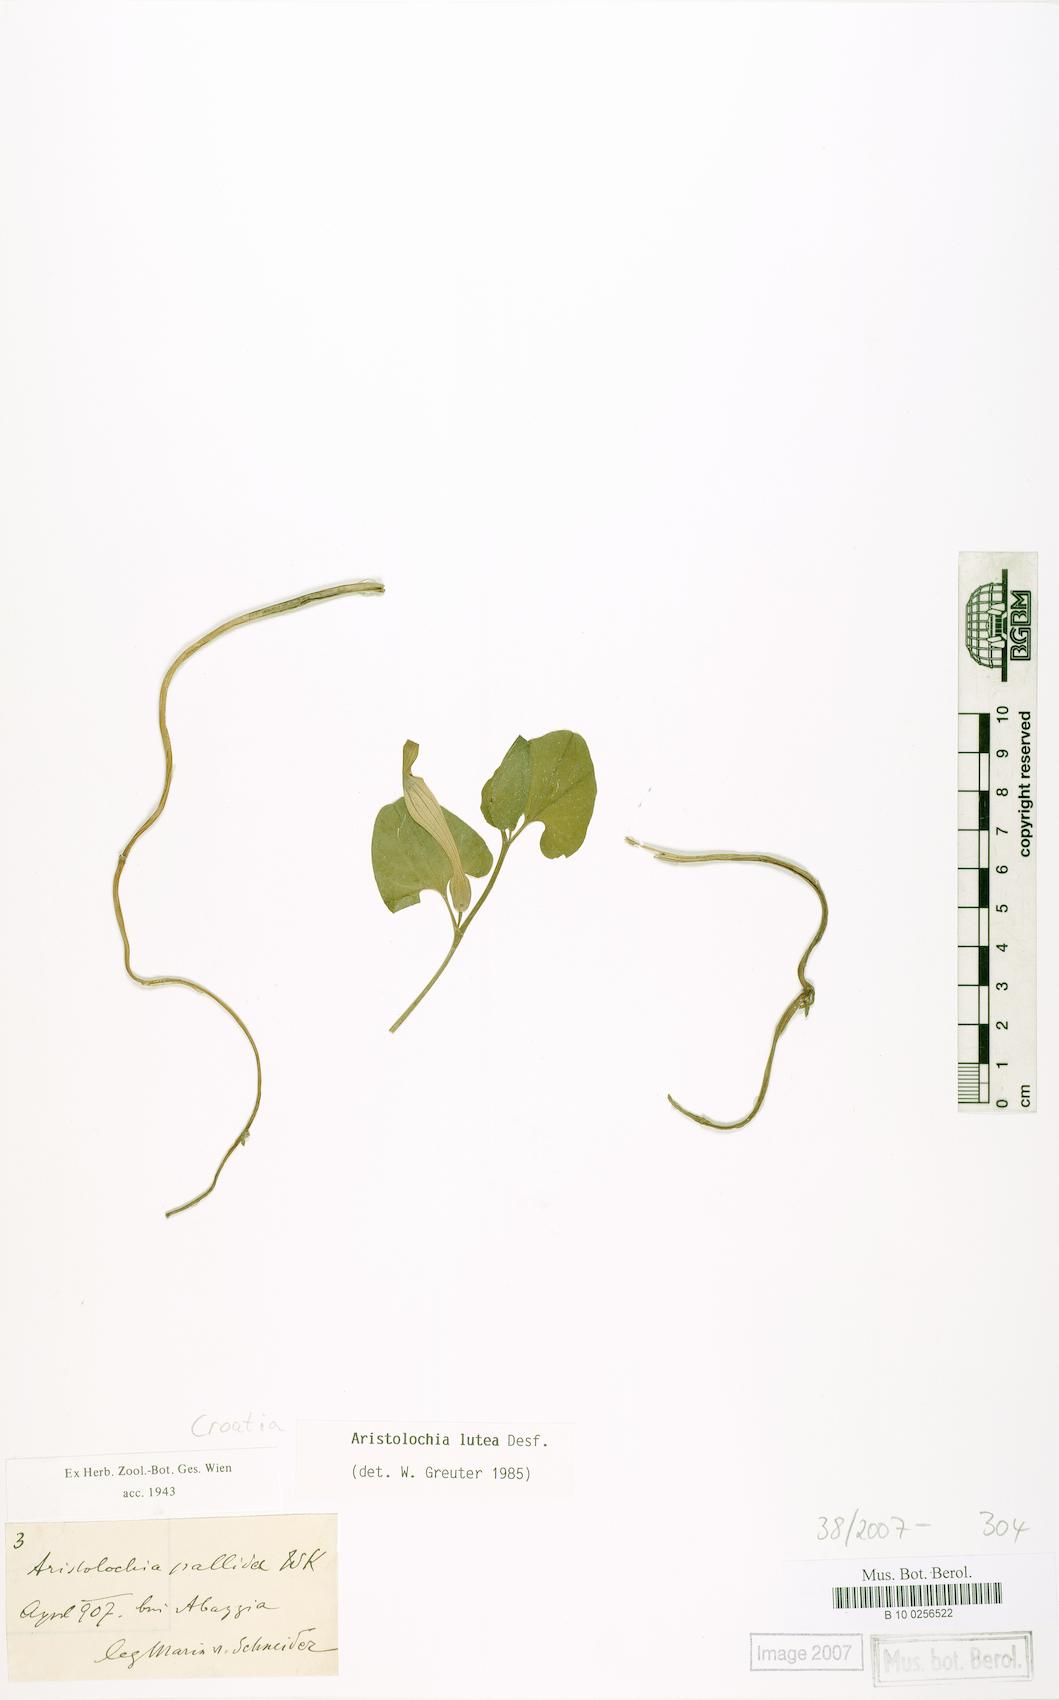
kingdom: Plantae
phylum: Tracheophyta
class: Magnoliopsida
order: Piperales
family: Aristolochiaceae
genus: Aristolochia
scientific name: Aristolochia lutea
